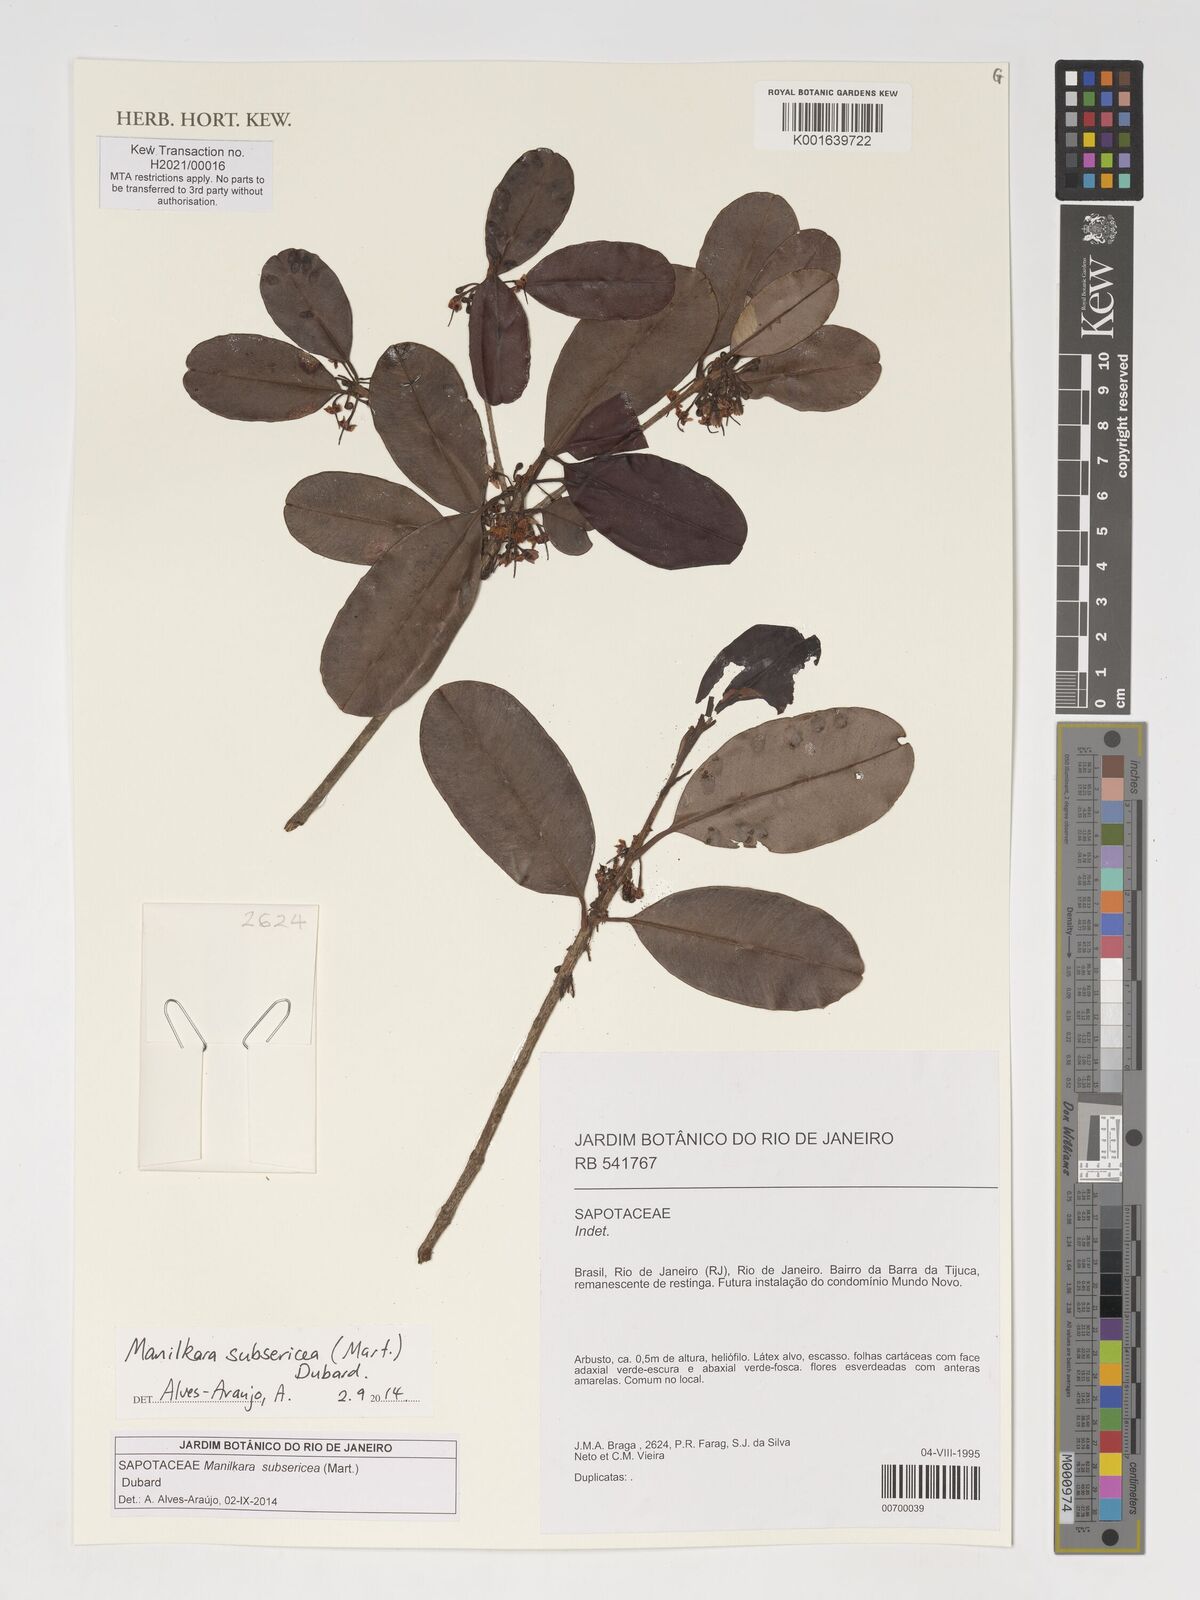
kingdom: Plantae
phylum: Tracheophyta
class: Magnoliopsida
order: Ericales
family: Sapotaceae
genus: Manilkara
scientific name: Manilkara subsericea
